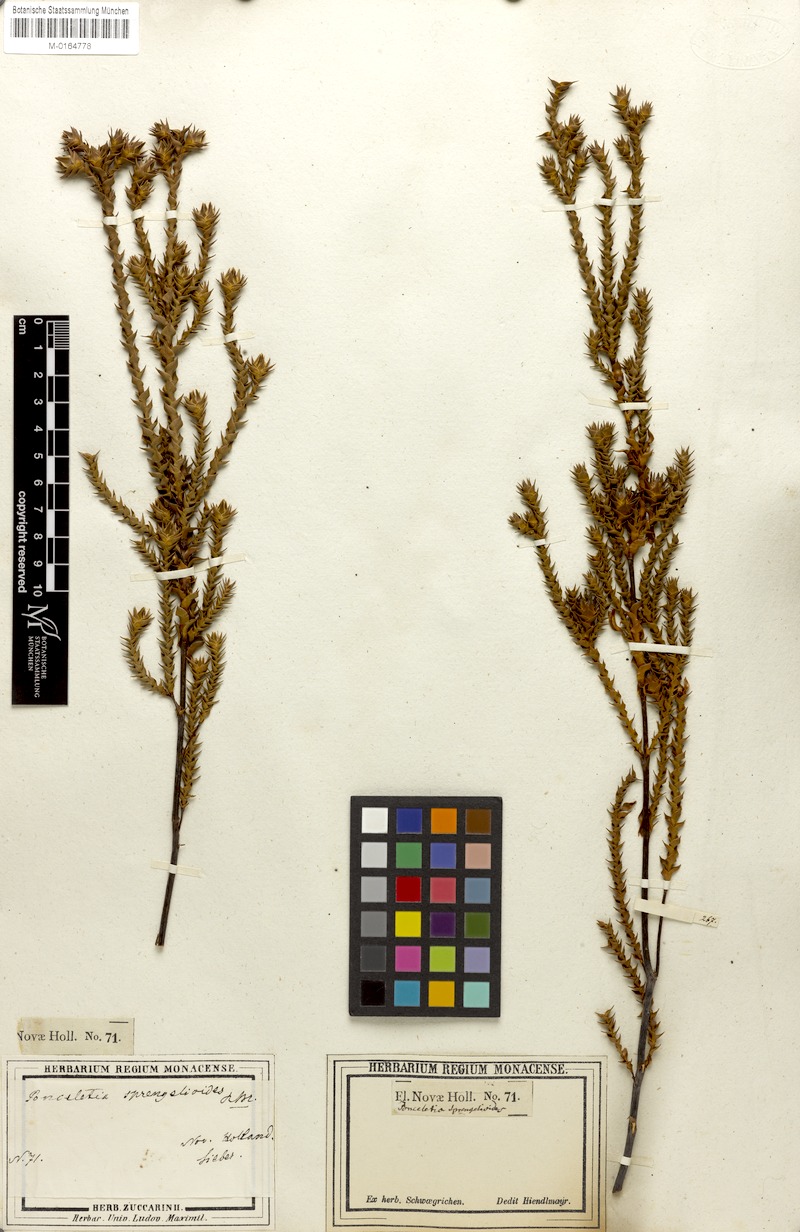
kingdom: Plantae
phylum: Tracheophyta
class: Magnoliopsida
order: Ericales
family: Ericaceae
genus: Sprengelia
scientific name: Sprengelia sprengelioides
